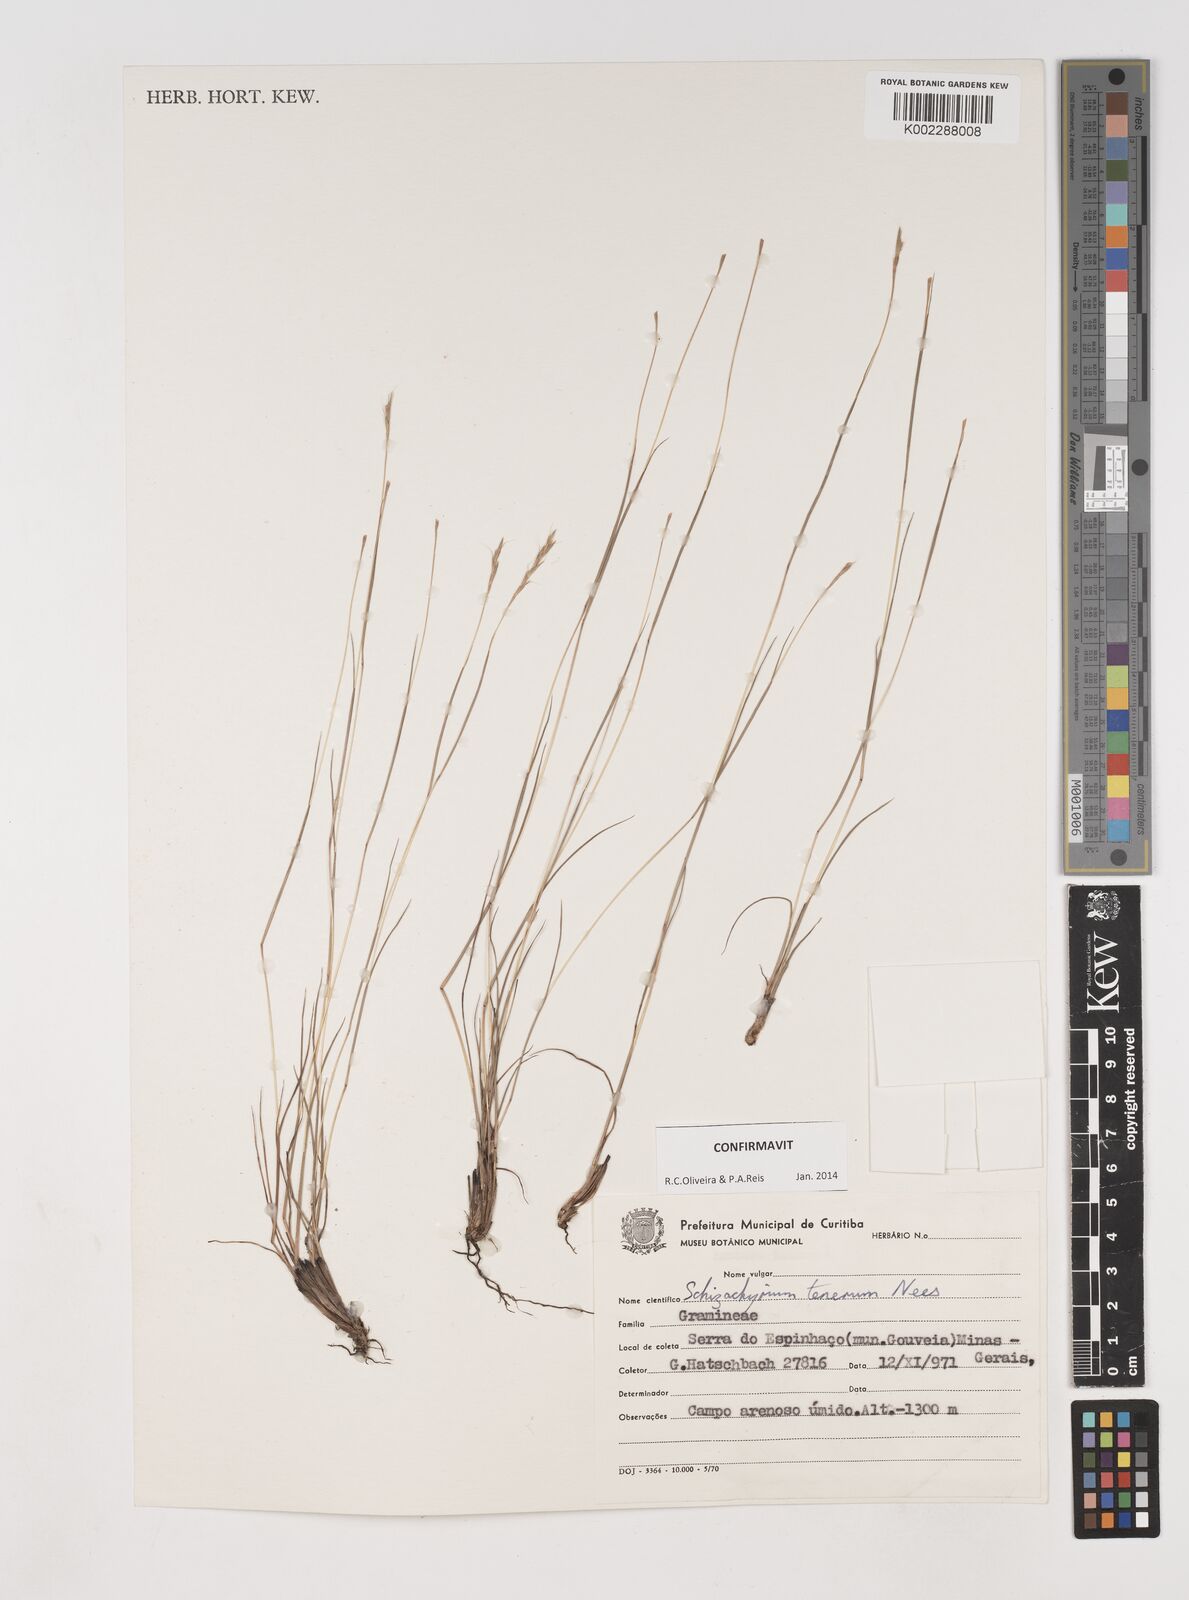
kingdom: Plantae
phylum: Tracheophyta
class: Liliopsida
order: Poales
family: Poaceae
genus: Andropogon
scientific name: Andropogon tener
